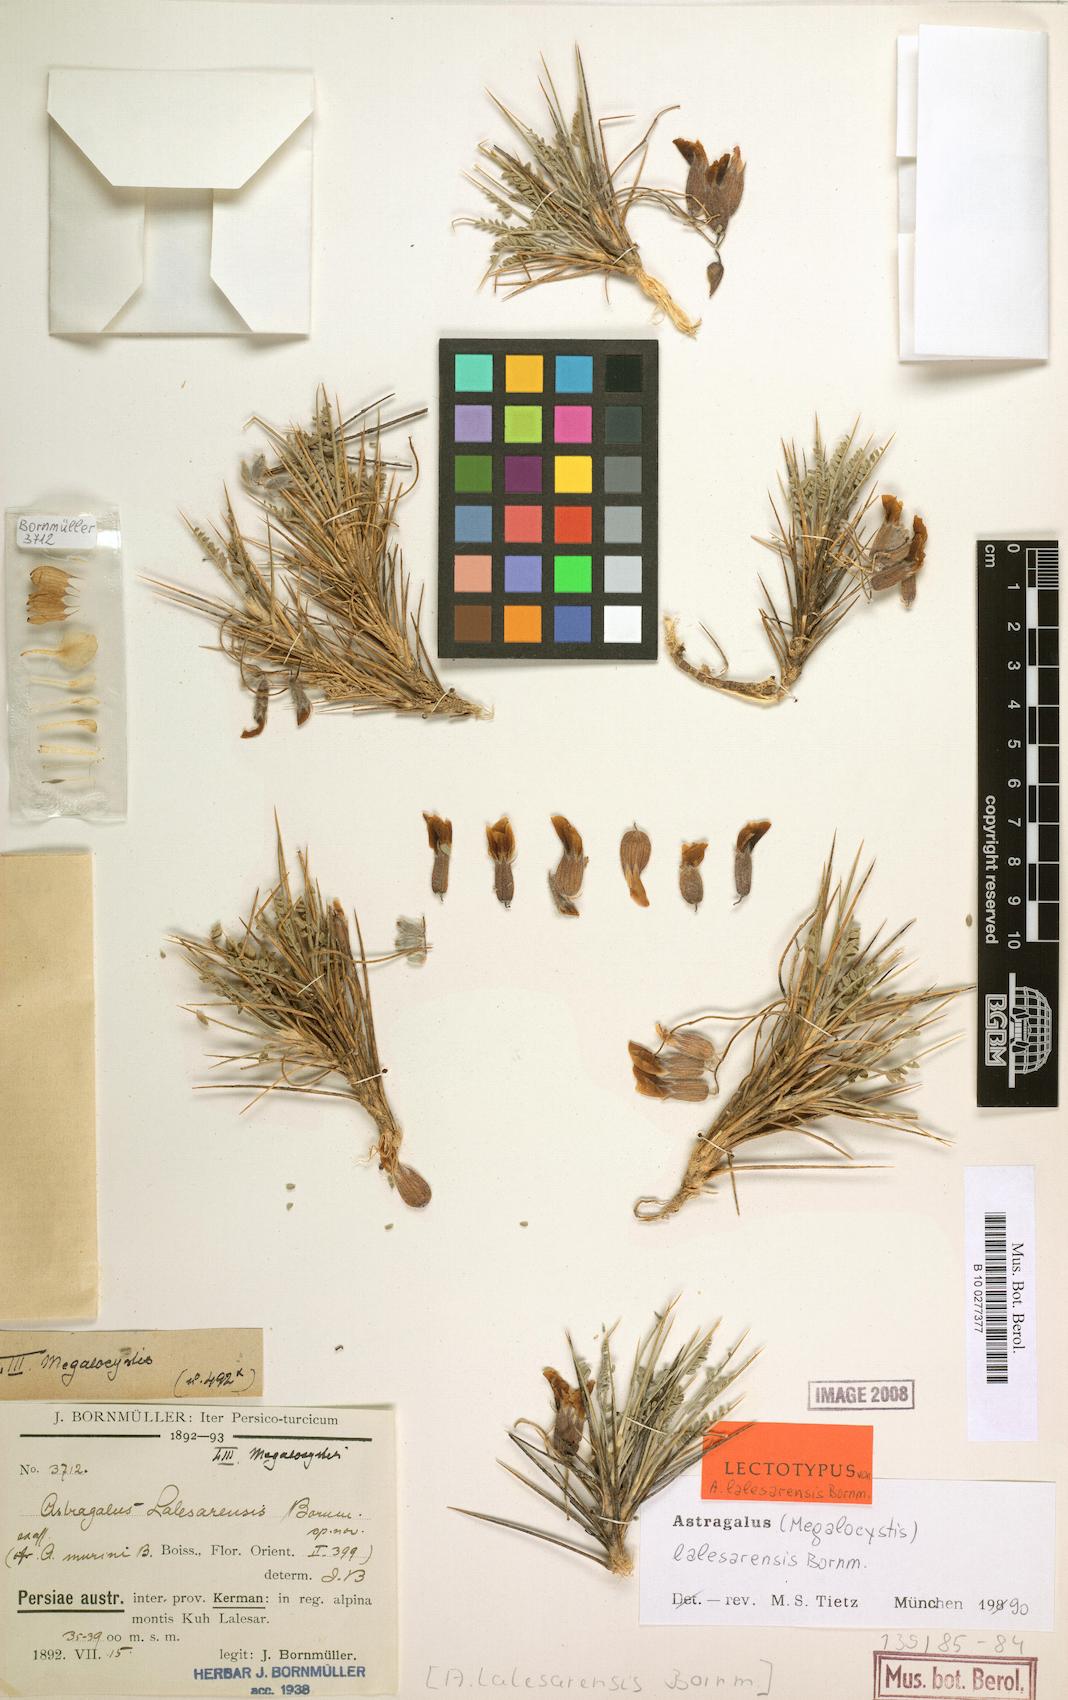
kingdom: Plantae
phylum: Tracheophyta
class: Magnoliopsida
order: Fabales
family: Fabaceae
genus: Astragalus
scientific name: Astragalus lalesarensis
